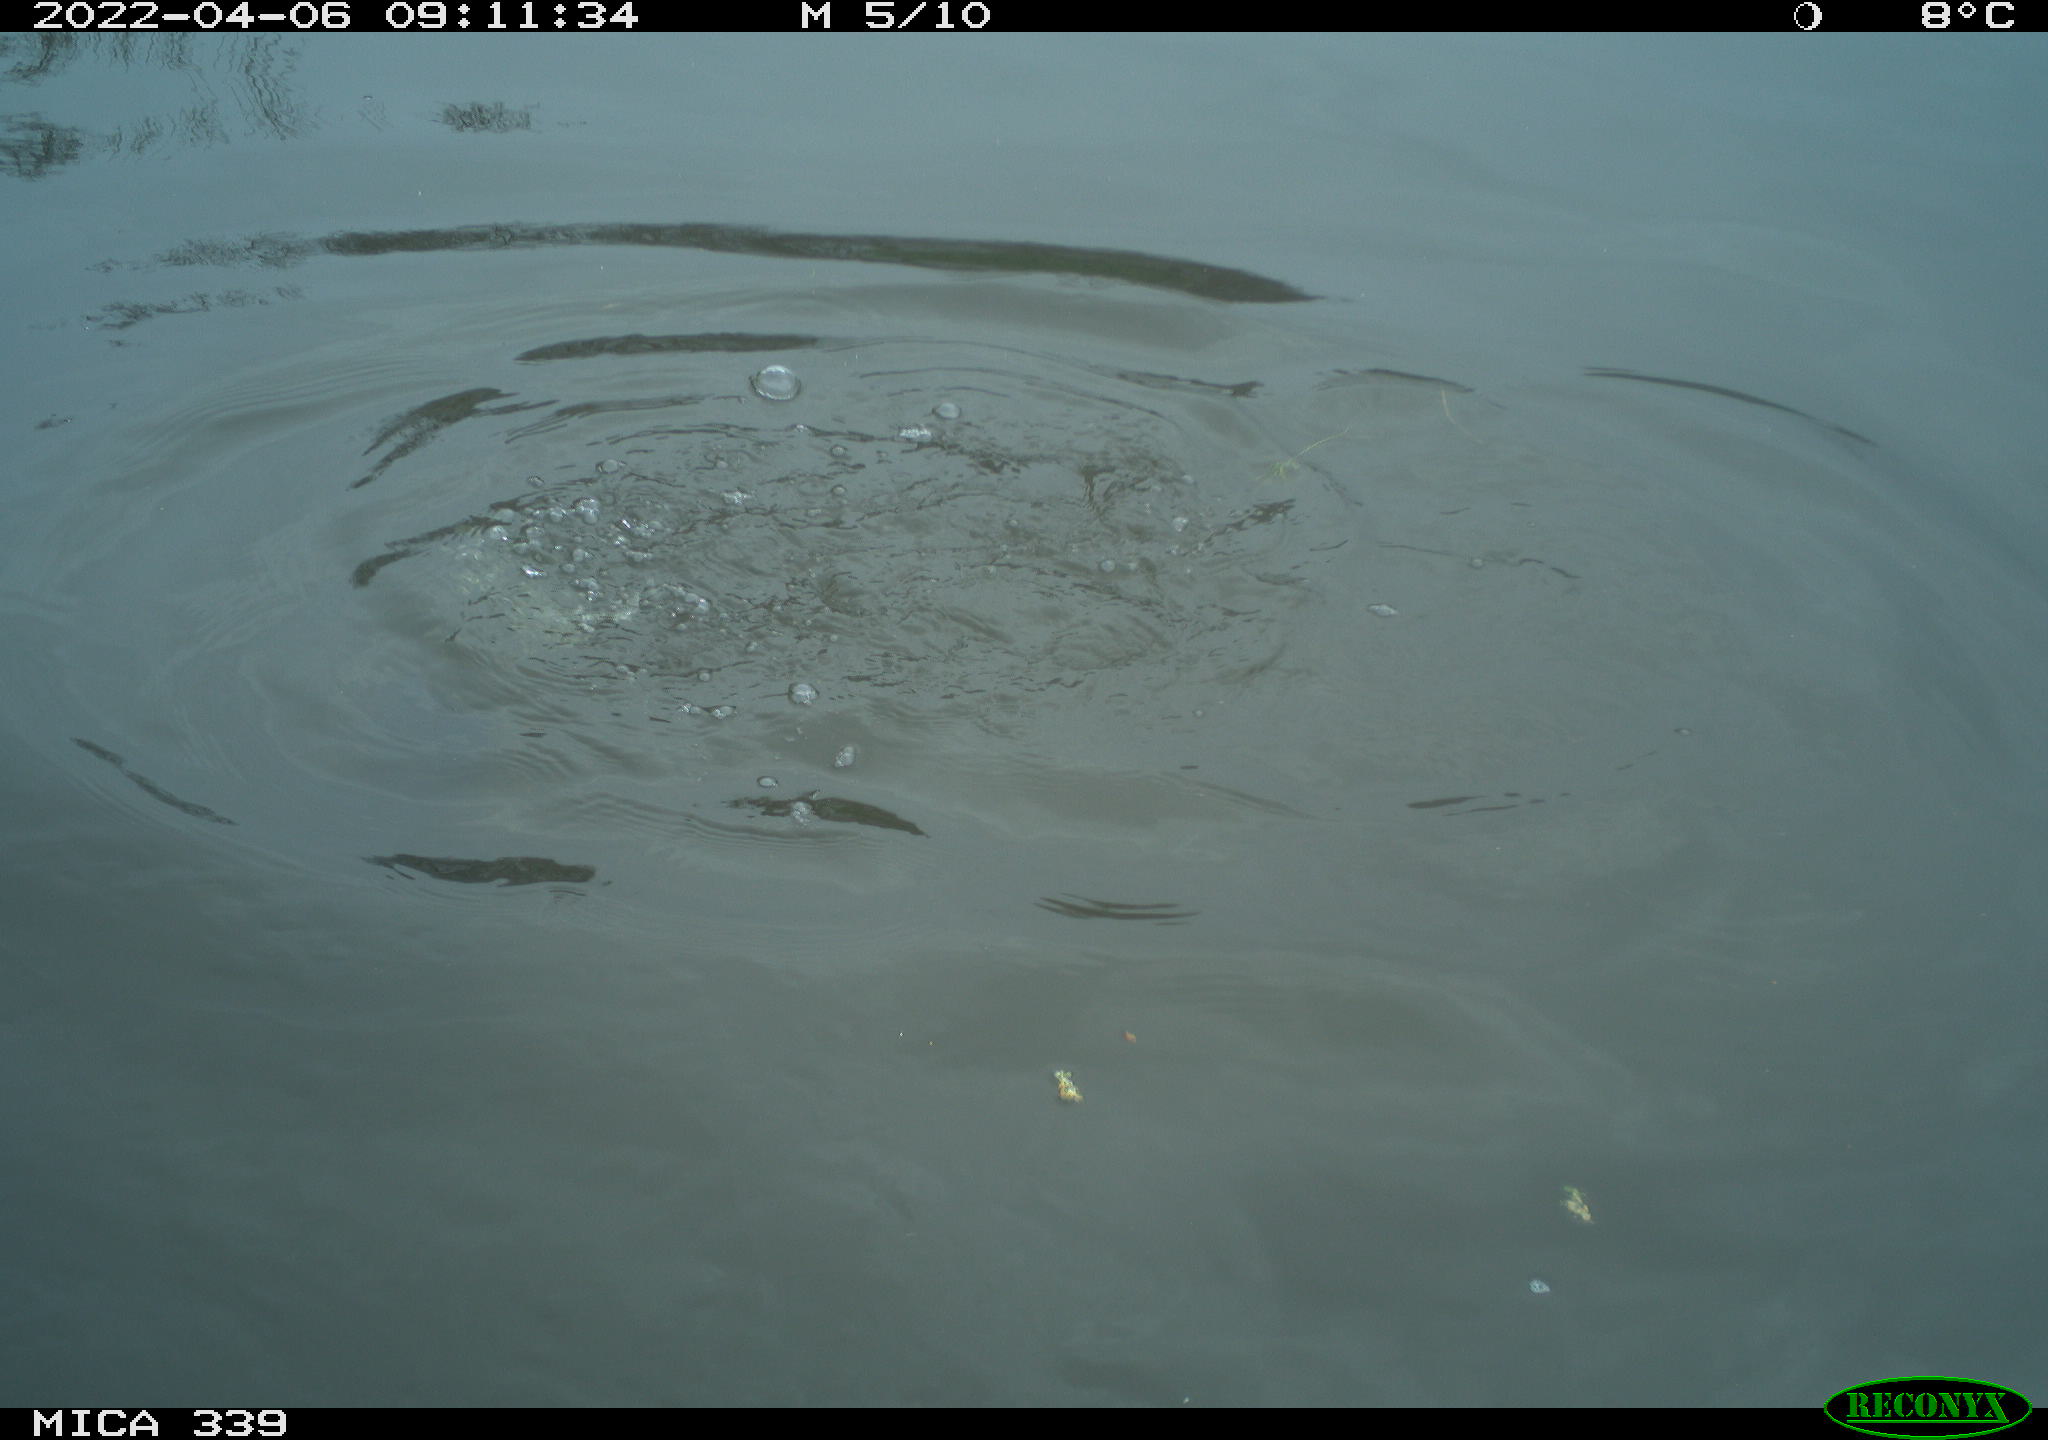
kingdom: Animalia
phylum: Chordata
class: Aves
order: Anseriformes
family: Anatidae
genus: Anas
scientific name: Anas platyrhynchos
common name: Mallard
